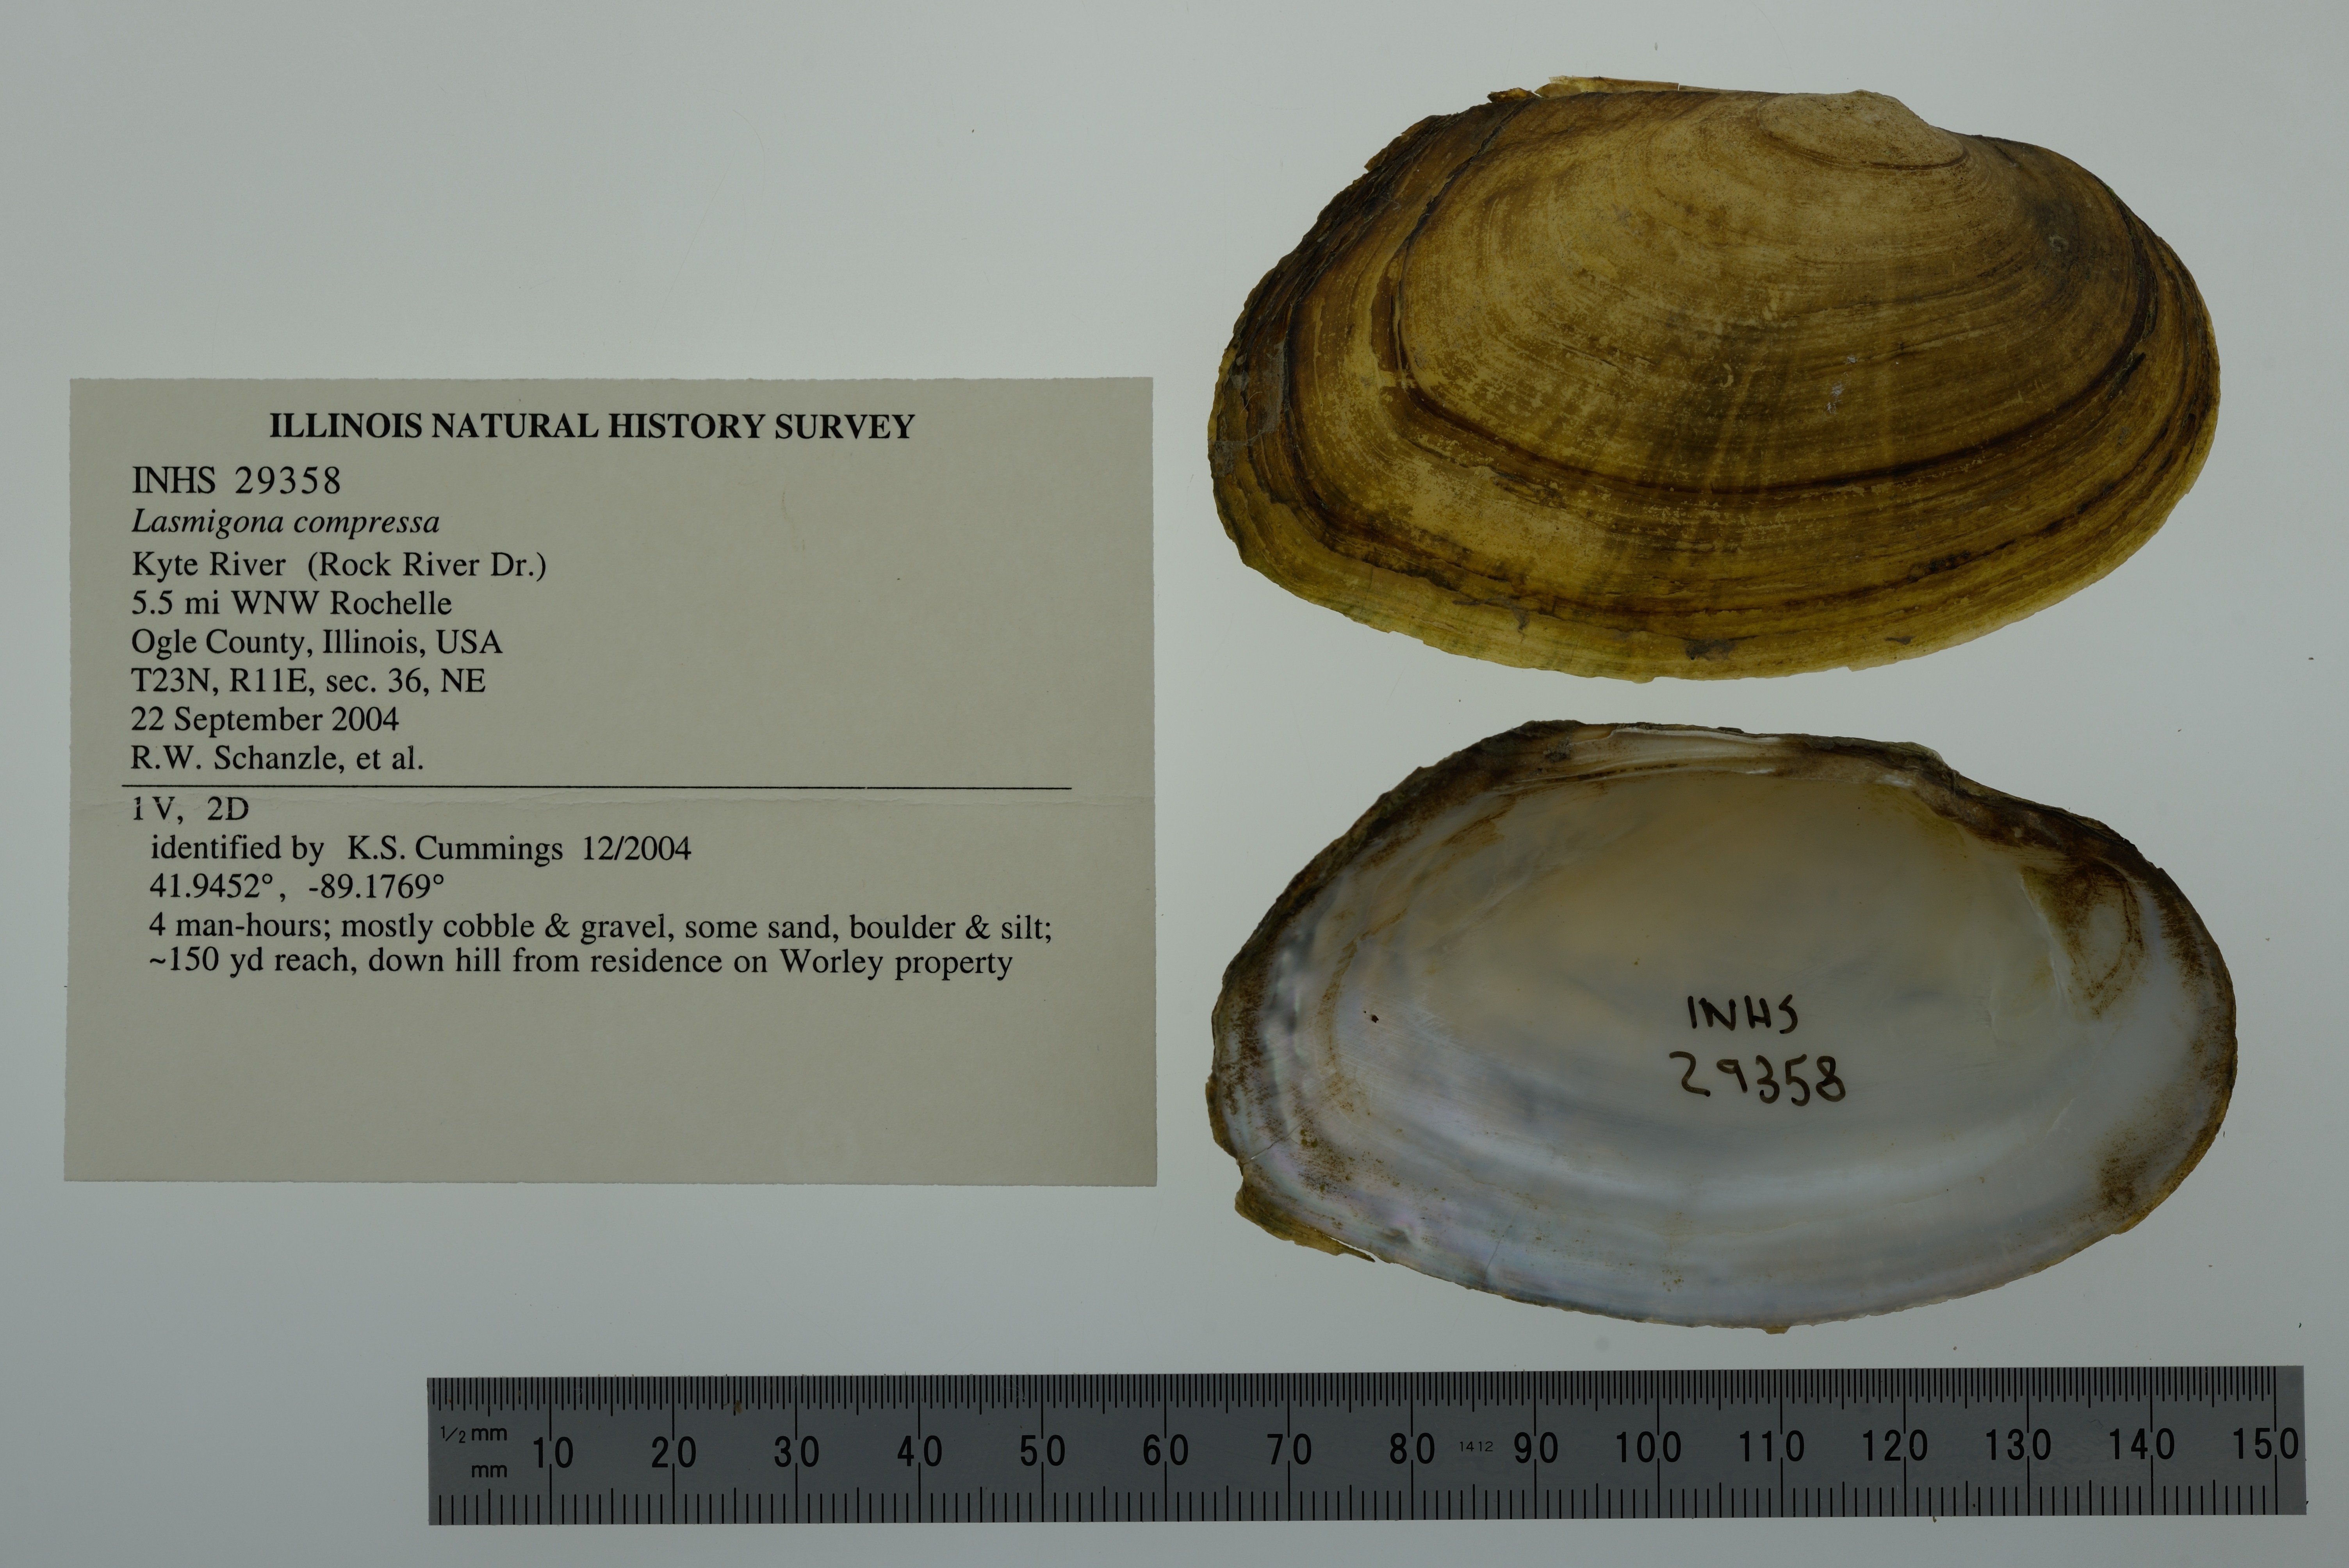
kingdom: Animalia
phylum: Mollusca
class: Bivalvia
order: Unionida
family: Unionidae
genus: Lasmigona
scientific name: Lasmigona compressa
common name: Creek heelsplitter
